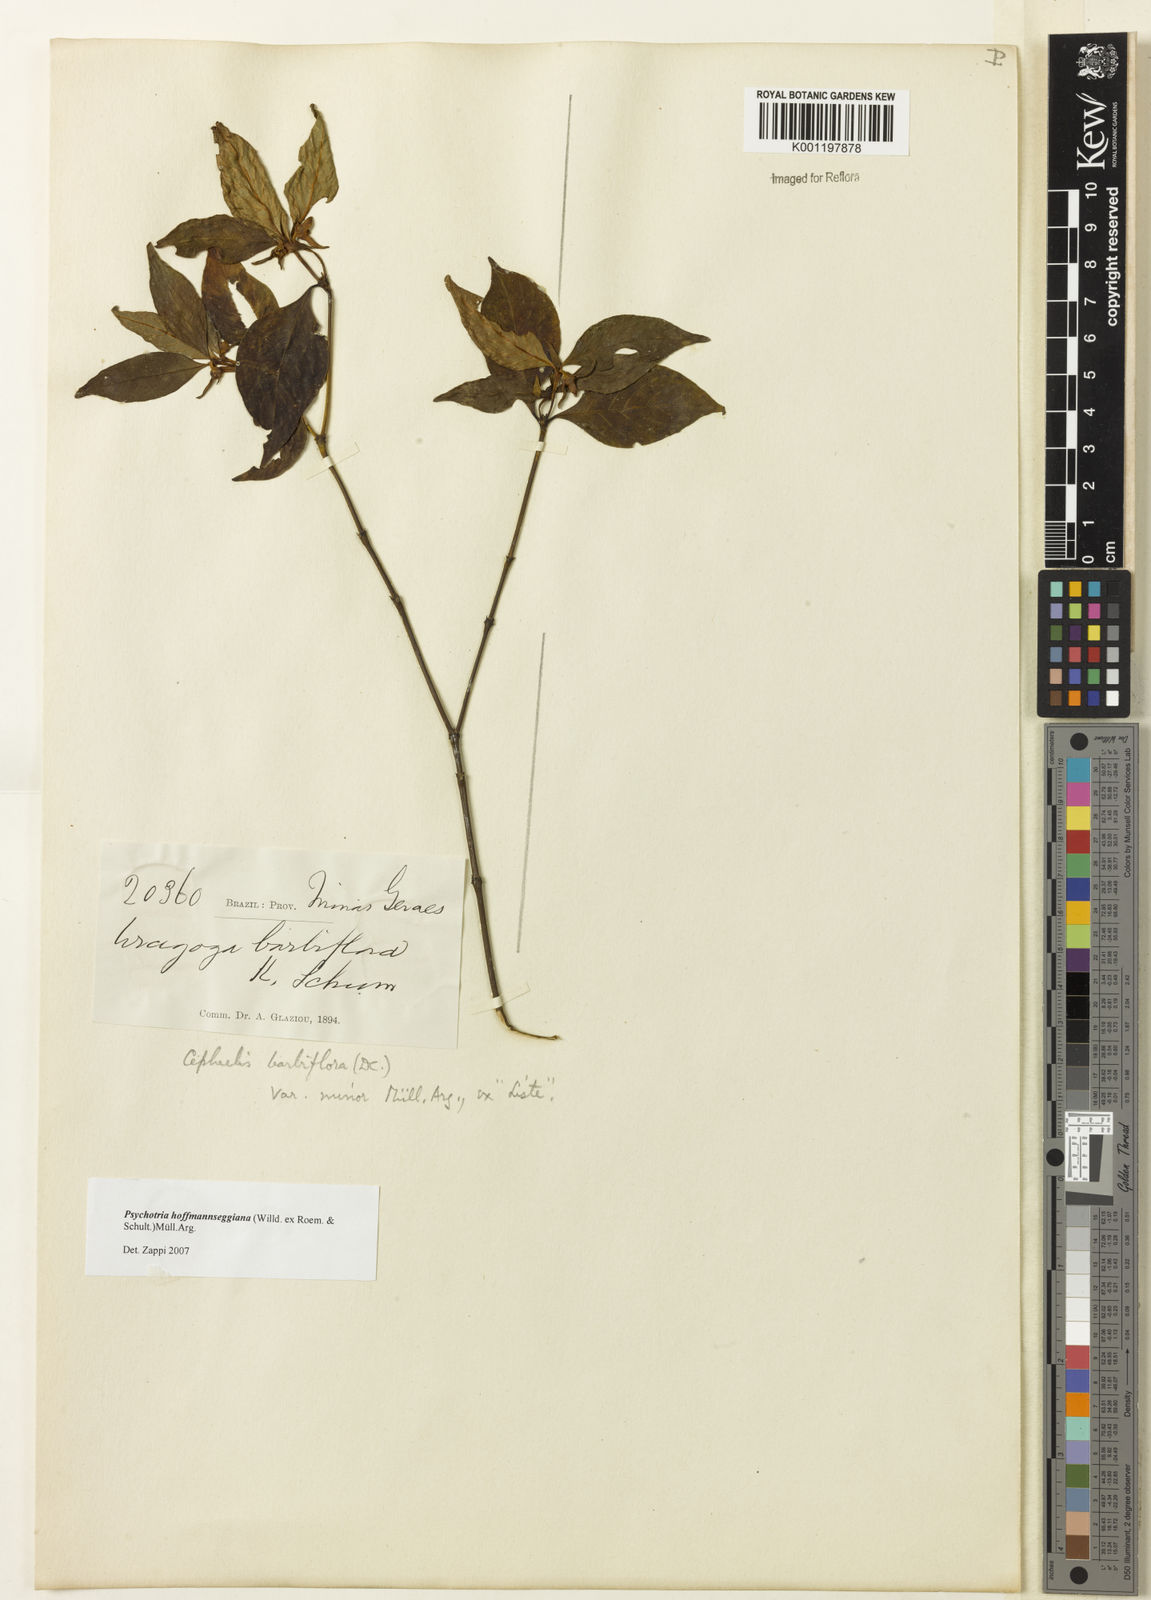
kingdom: Plantae
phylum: Tracheophyta
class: Magnoliopsida
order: Gentianales
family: Rubiaceae
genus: Psychotria
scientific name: Psychotria
